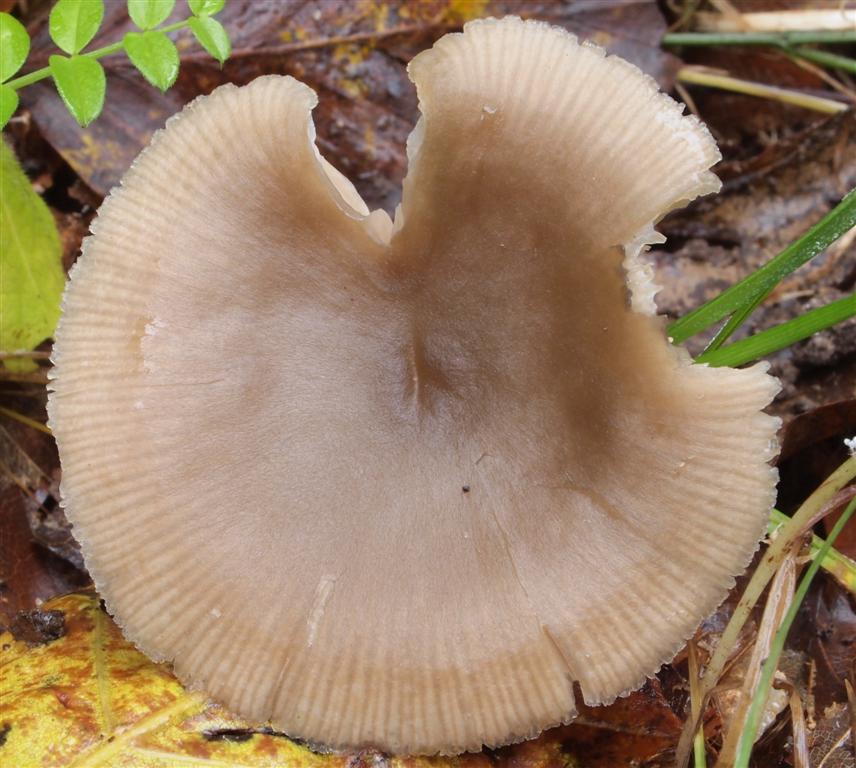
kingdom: Fungi
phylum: Basidiomycota
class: Agaricomycetes
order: Agaricales
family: Entolomataceae
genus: Entoloma
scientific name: Entoloma rhodopolium
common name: skov-rødblad
